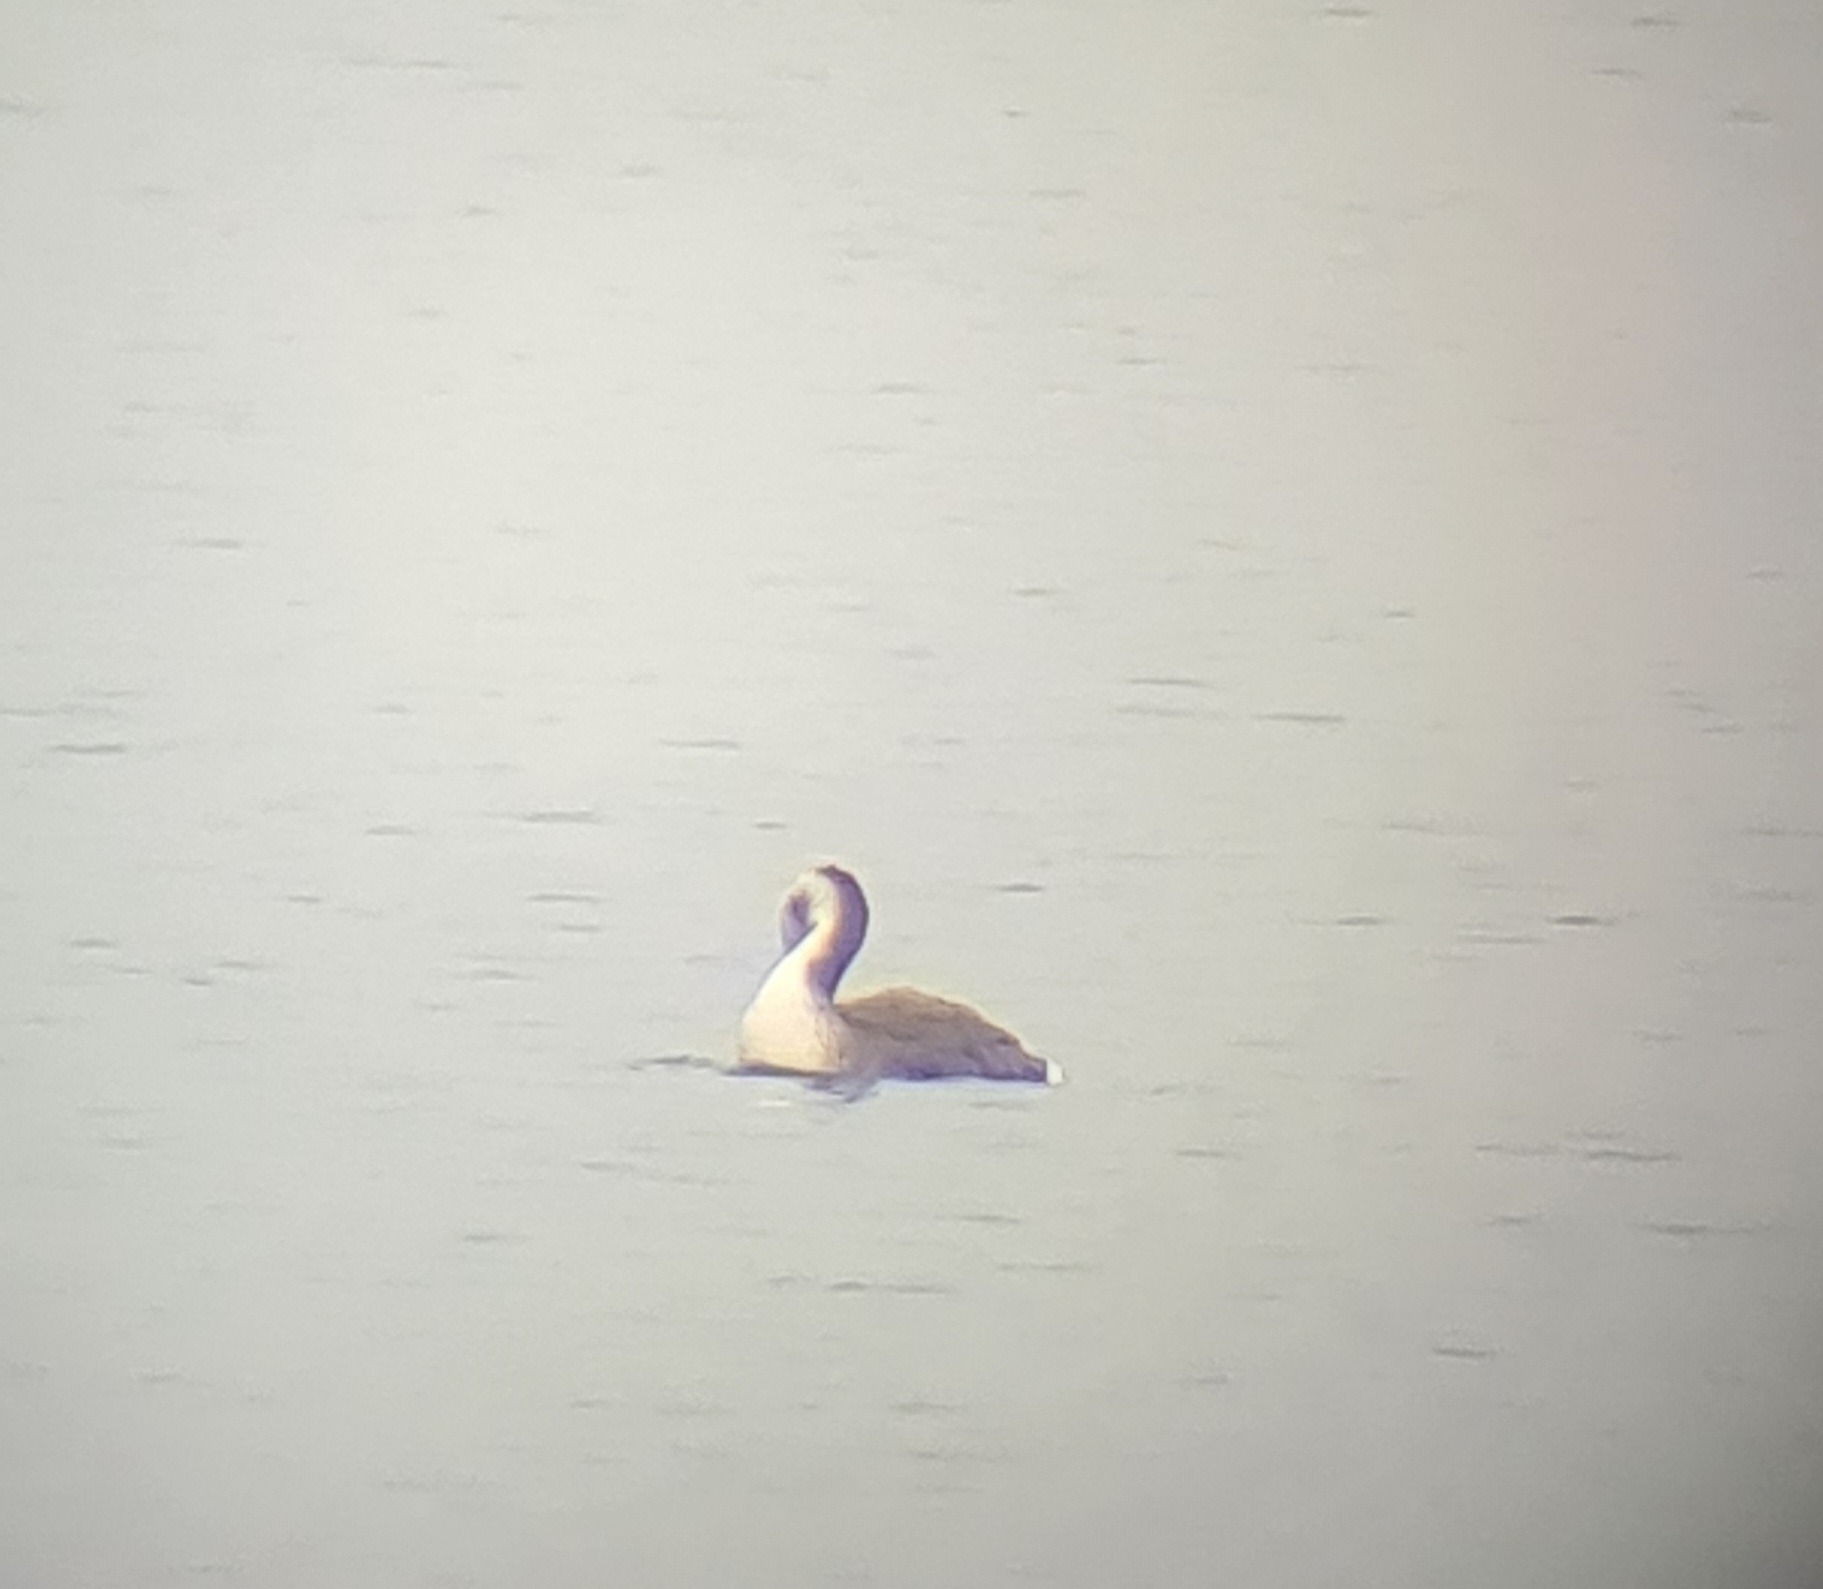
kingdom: Animalia
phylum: Chordata
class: Aves
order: Podicipediformes
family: Podicipedidae
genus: Podiceps
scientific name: Podiceps cristatus
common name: Toppet lappedykker
